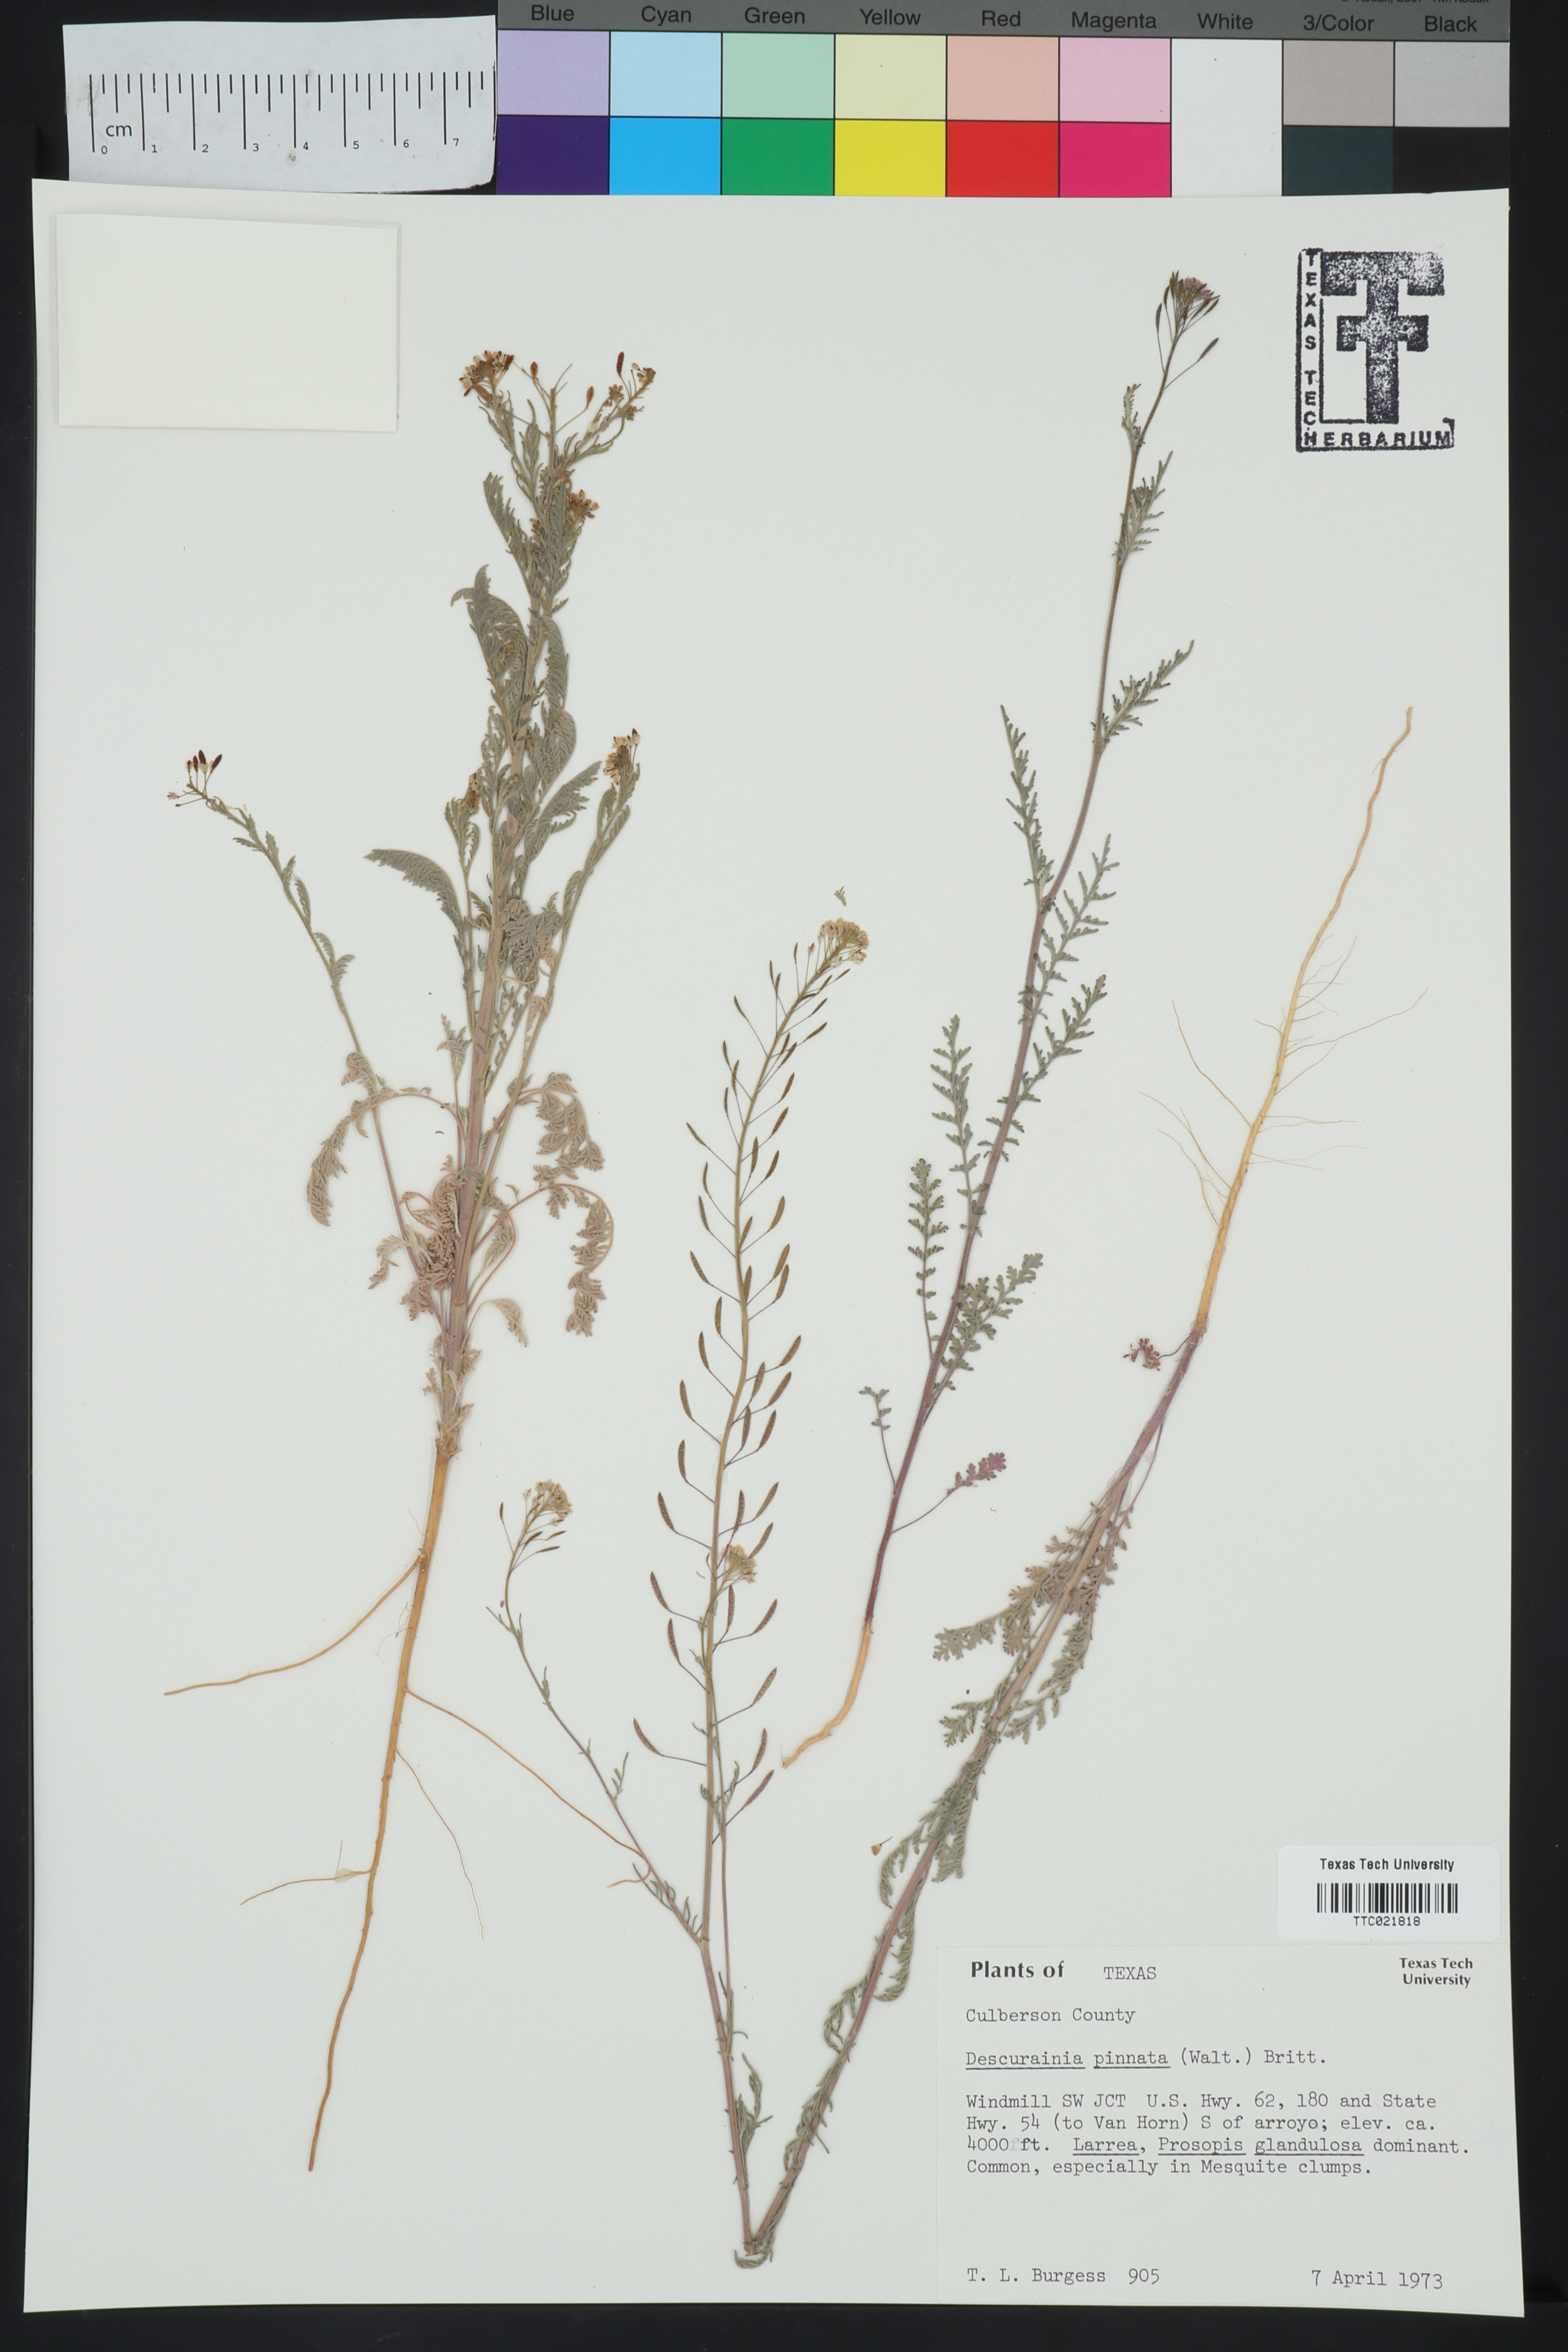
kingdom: Plantae
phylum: Tracheophyta
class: Magnoliopsida
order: Brassicales
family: Brassicaceae
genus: Descurainia
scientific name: Descurainia pinnata
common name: Western tansy mustard
